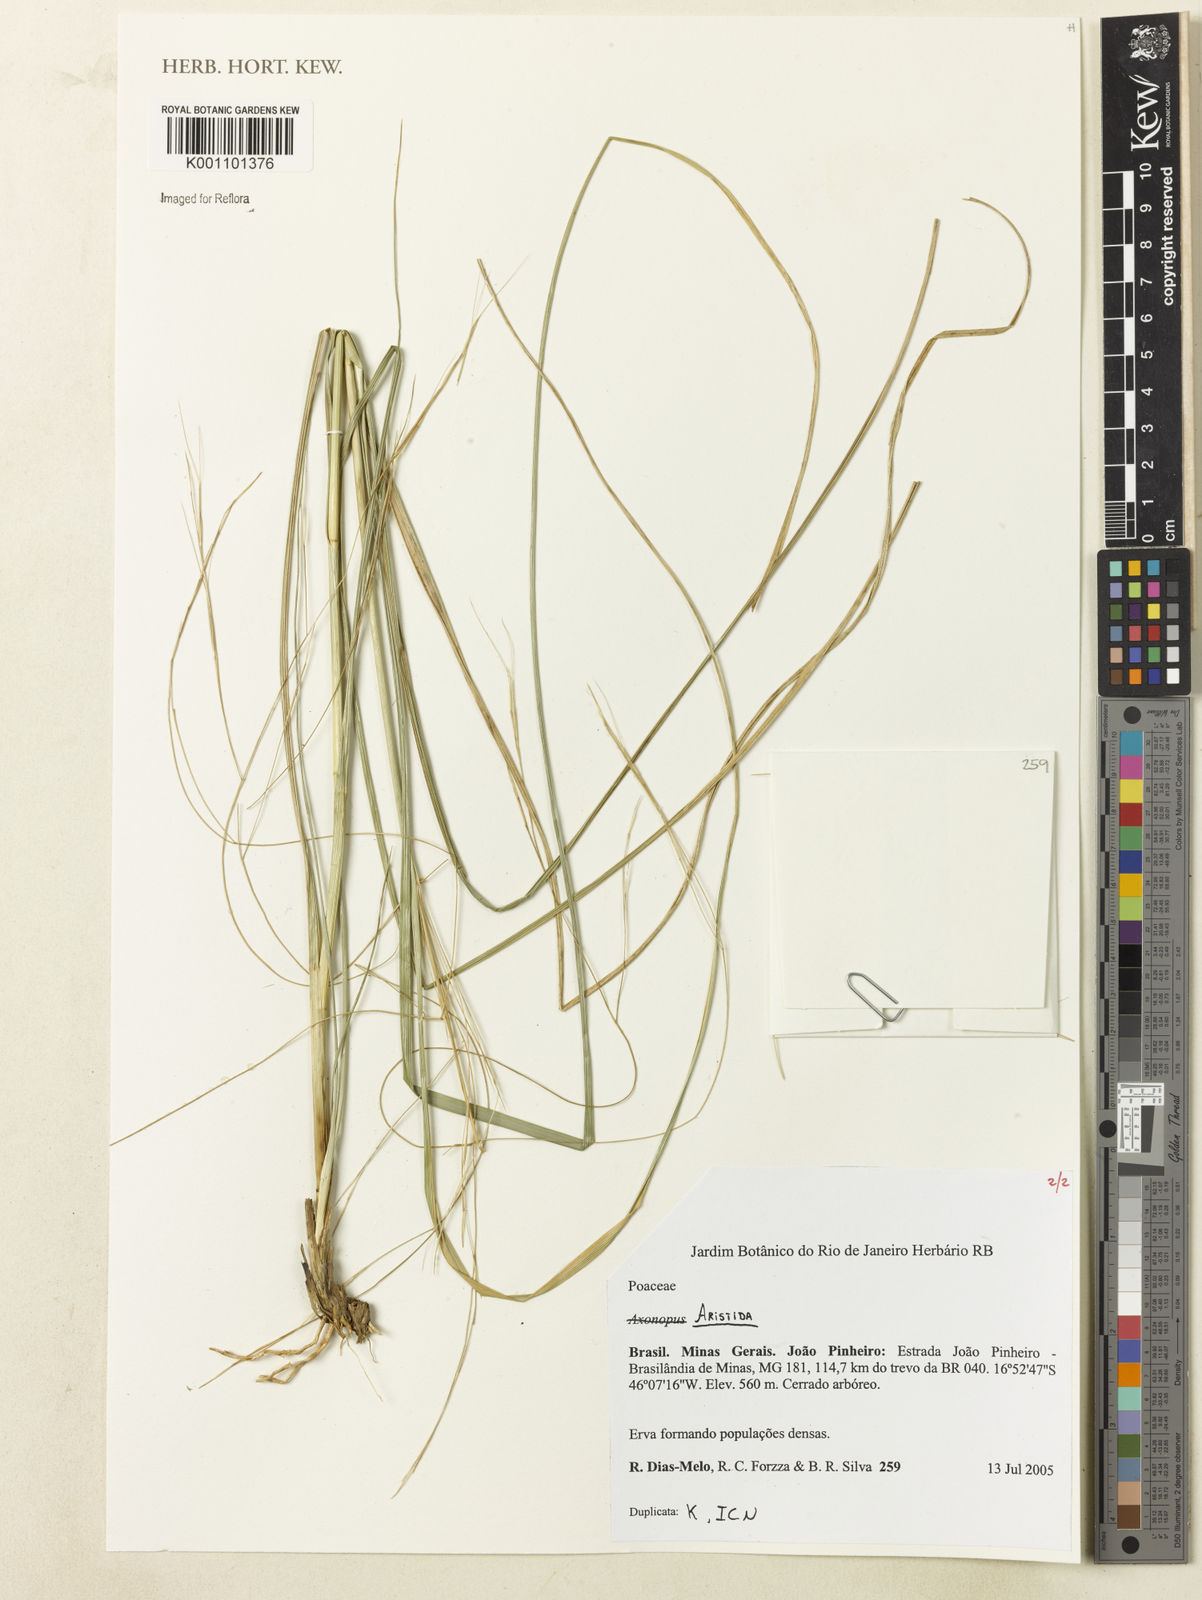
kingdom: Plantae
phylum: Tracheophyta
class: Liliopsida
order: Poales
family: Poaceae
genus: Aristida
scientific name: Aristida
